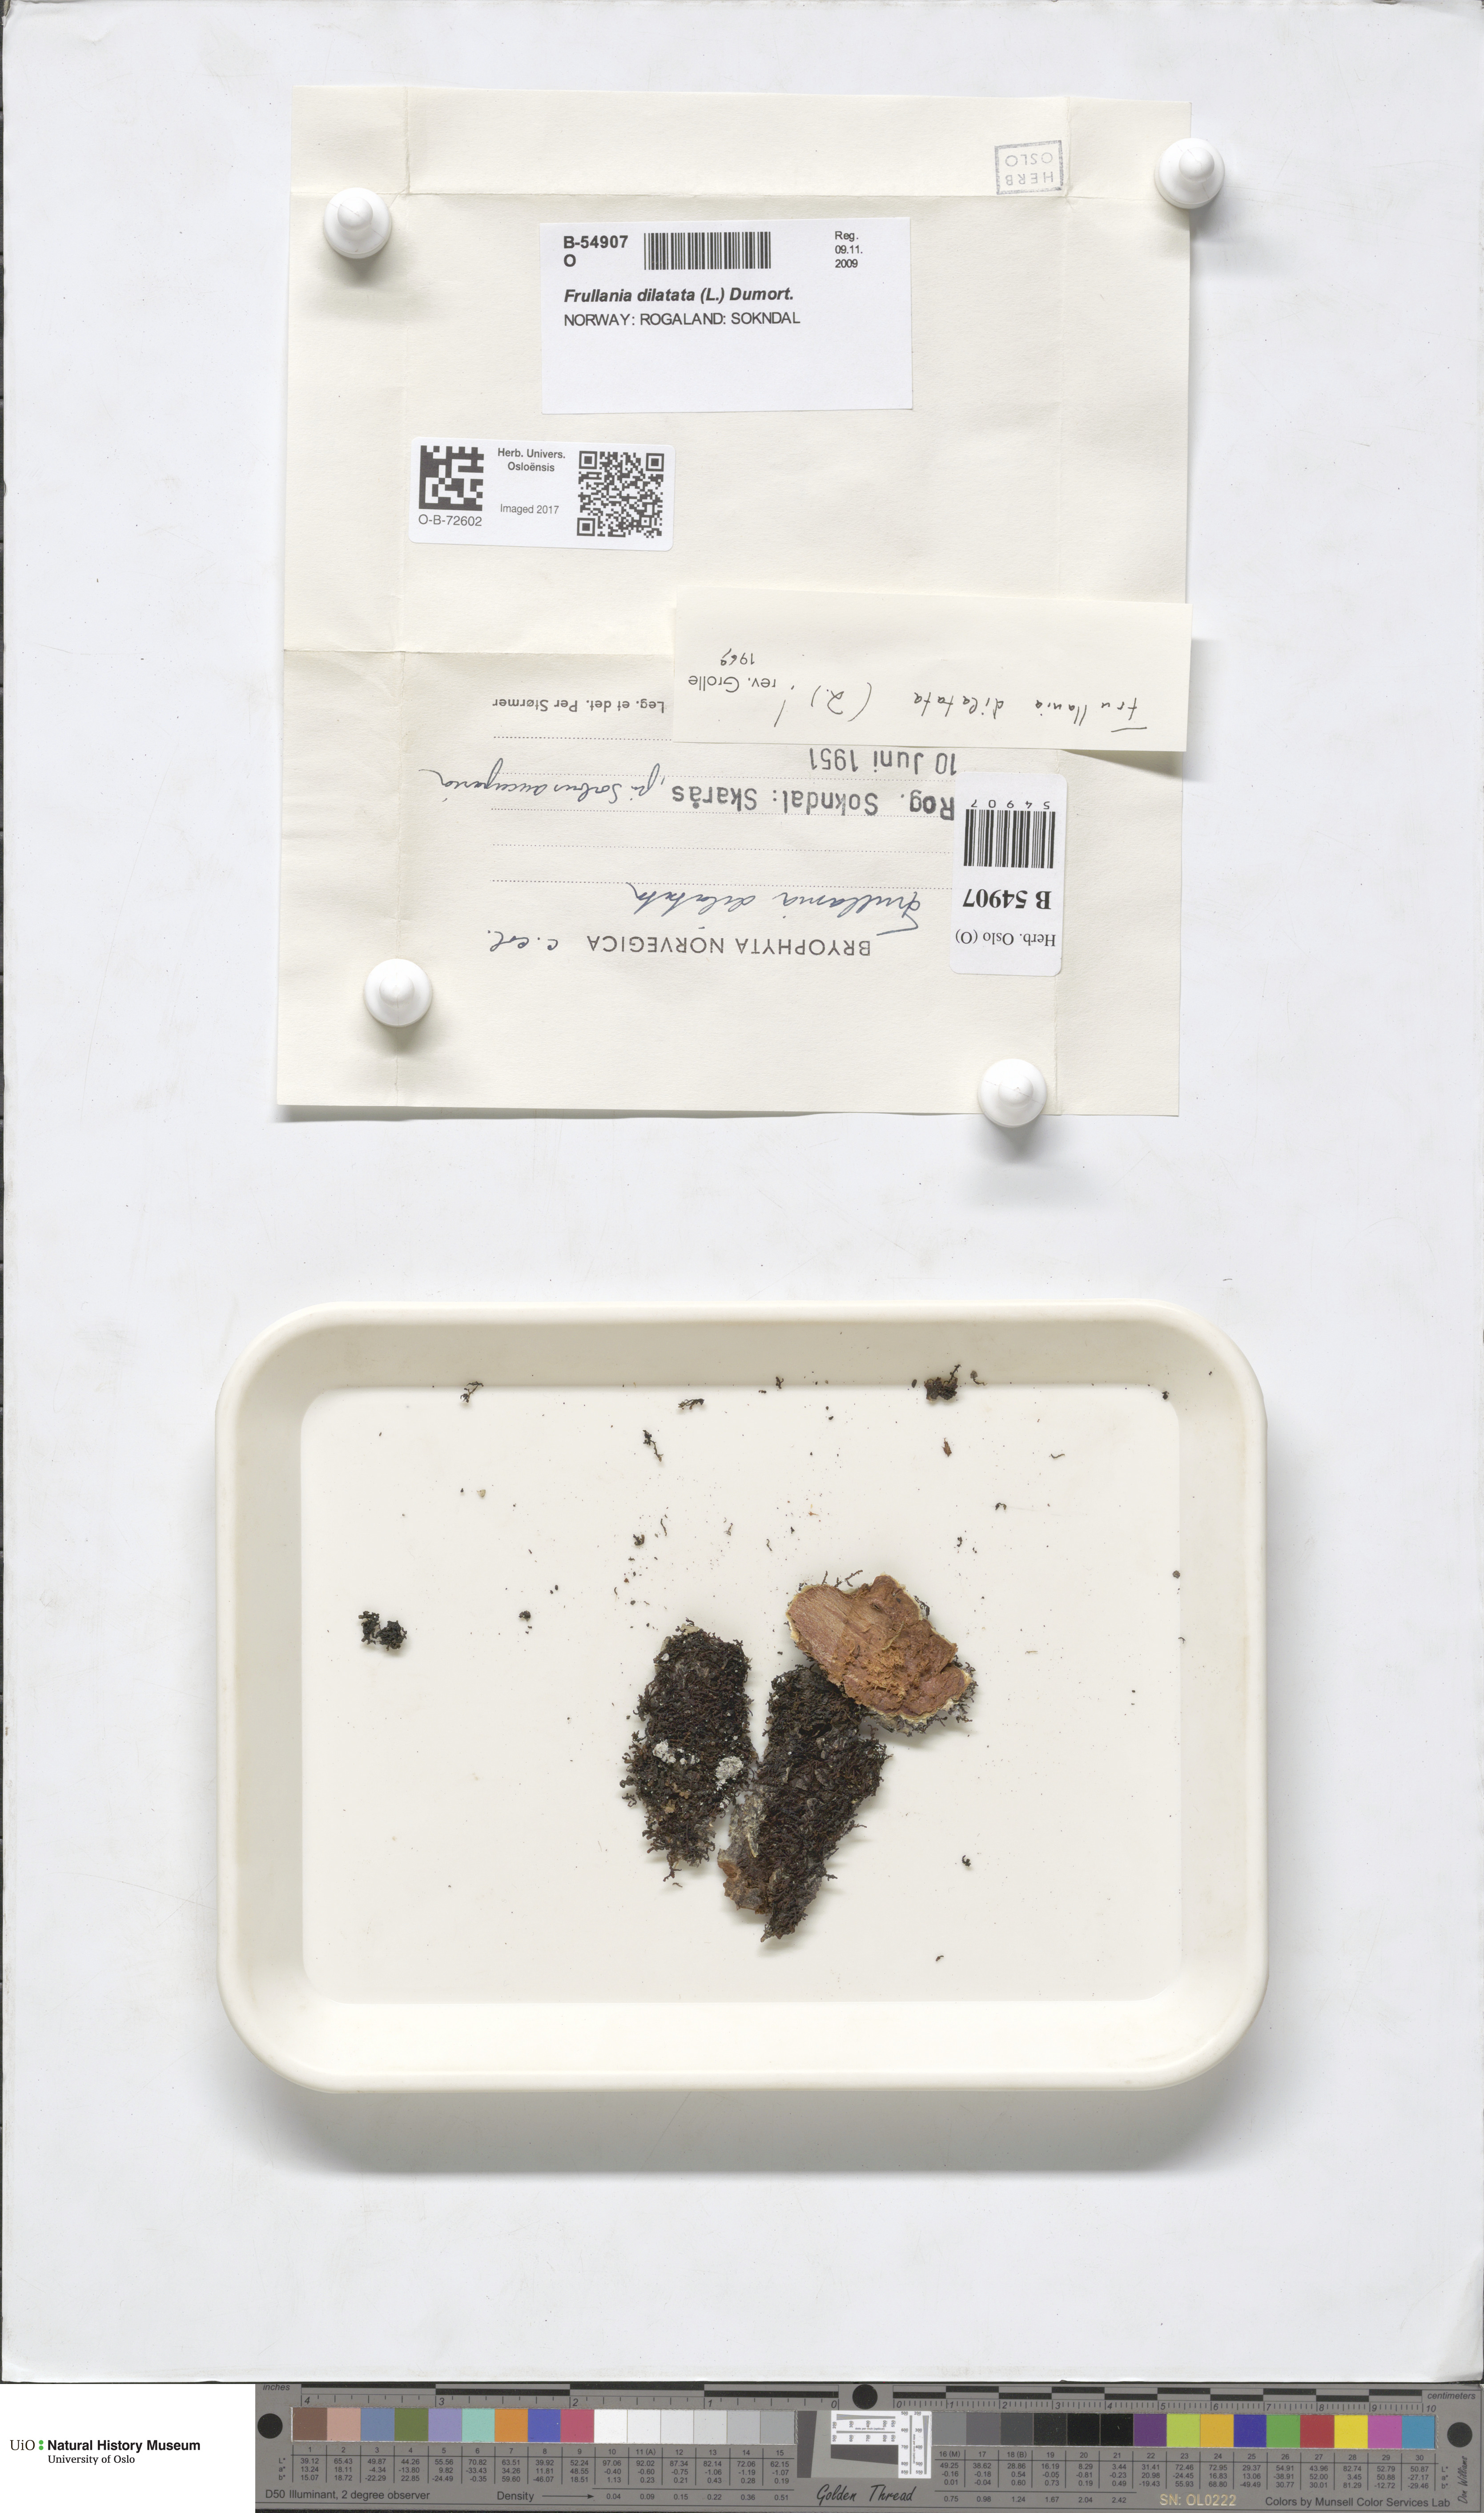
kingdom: Plantae
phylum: Marchantiophyta
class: Jungermanniopsida
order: Porellales
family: Frullaniaceae
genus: Frullania
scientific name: Frullania dilatata
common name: Dilated scalewort
